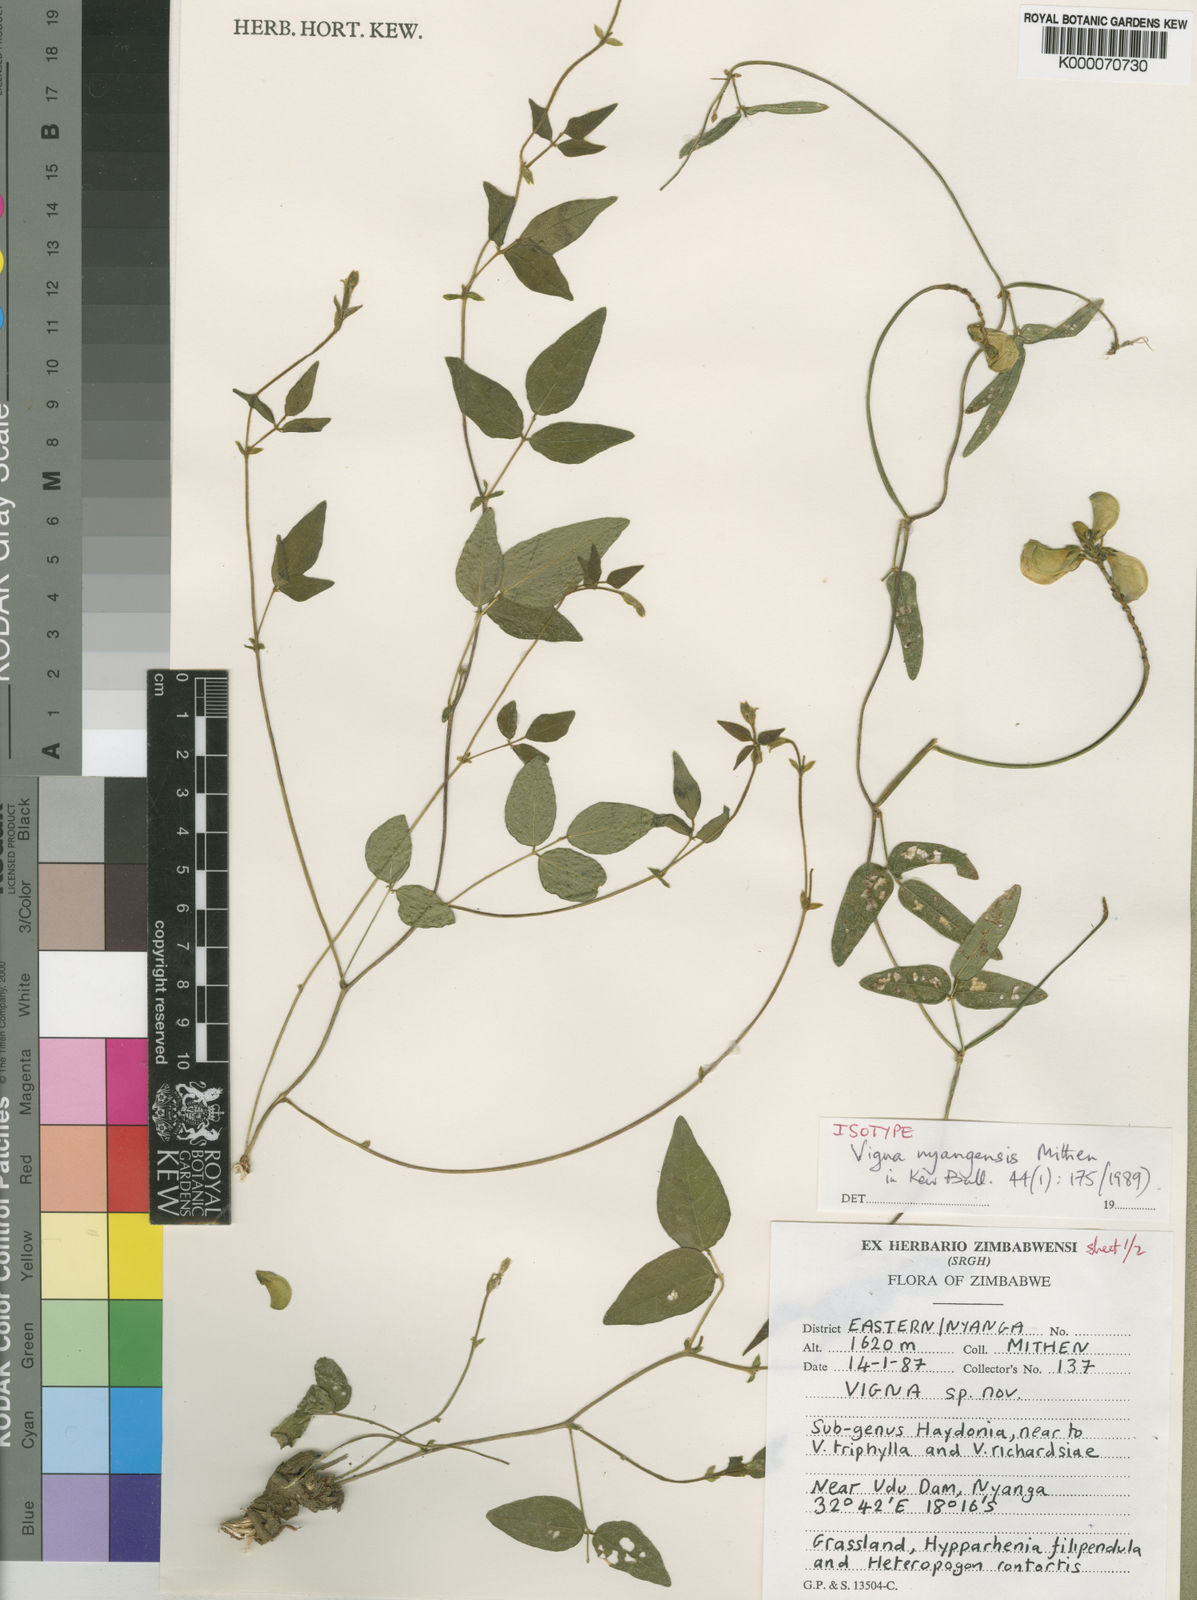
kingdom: Plantae
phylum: Tracheophyta
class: Magnoliopsida
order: Fabales
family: Fabaceae
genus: Vigna
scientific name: Vigna nyangensis
